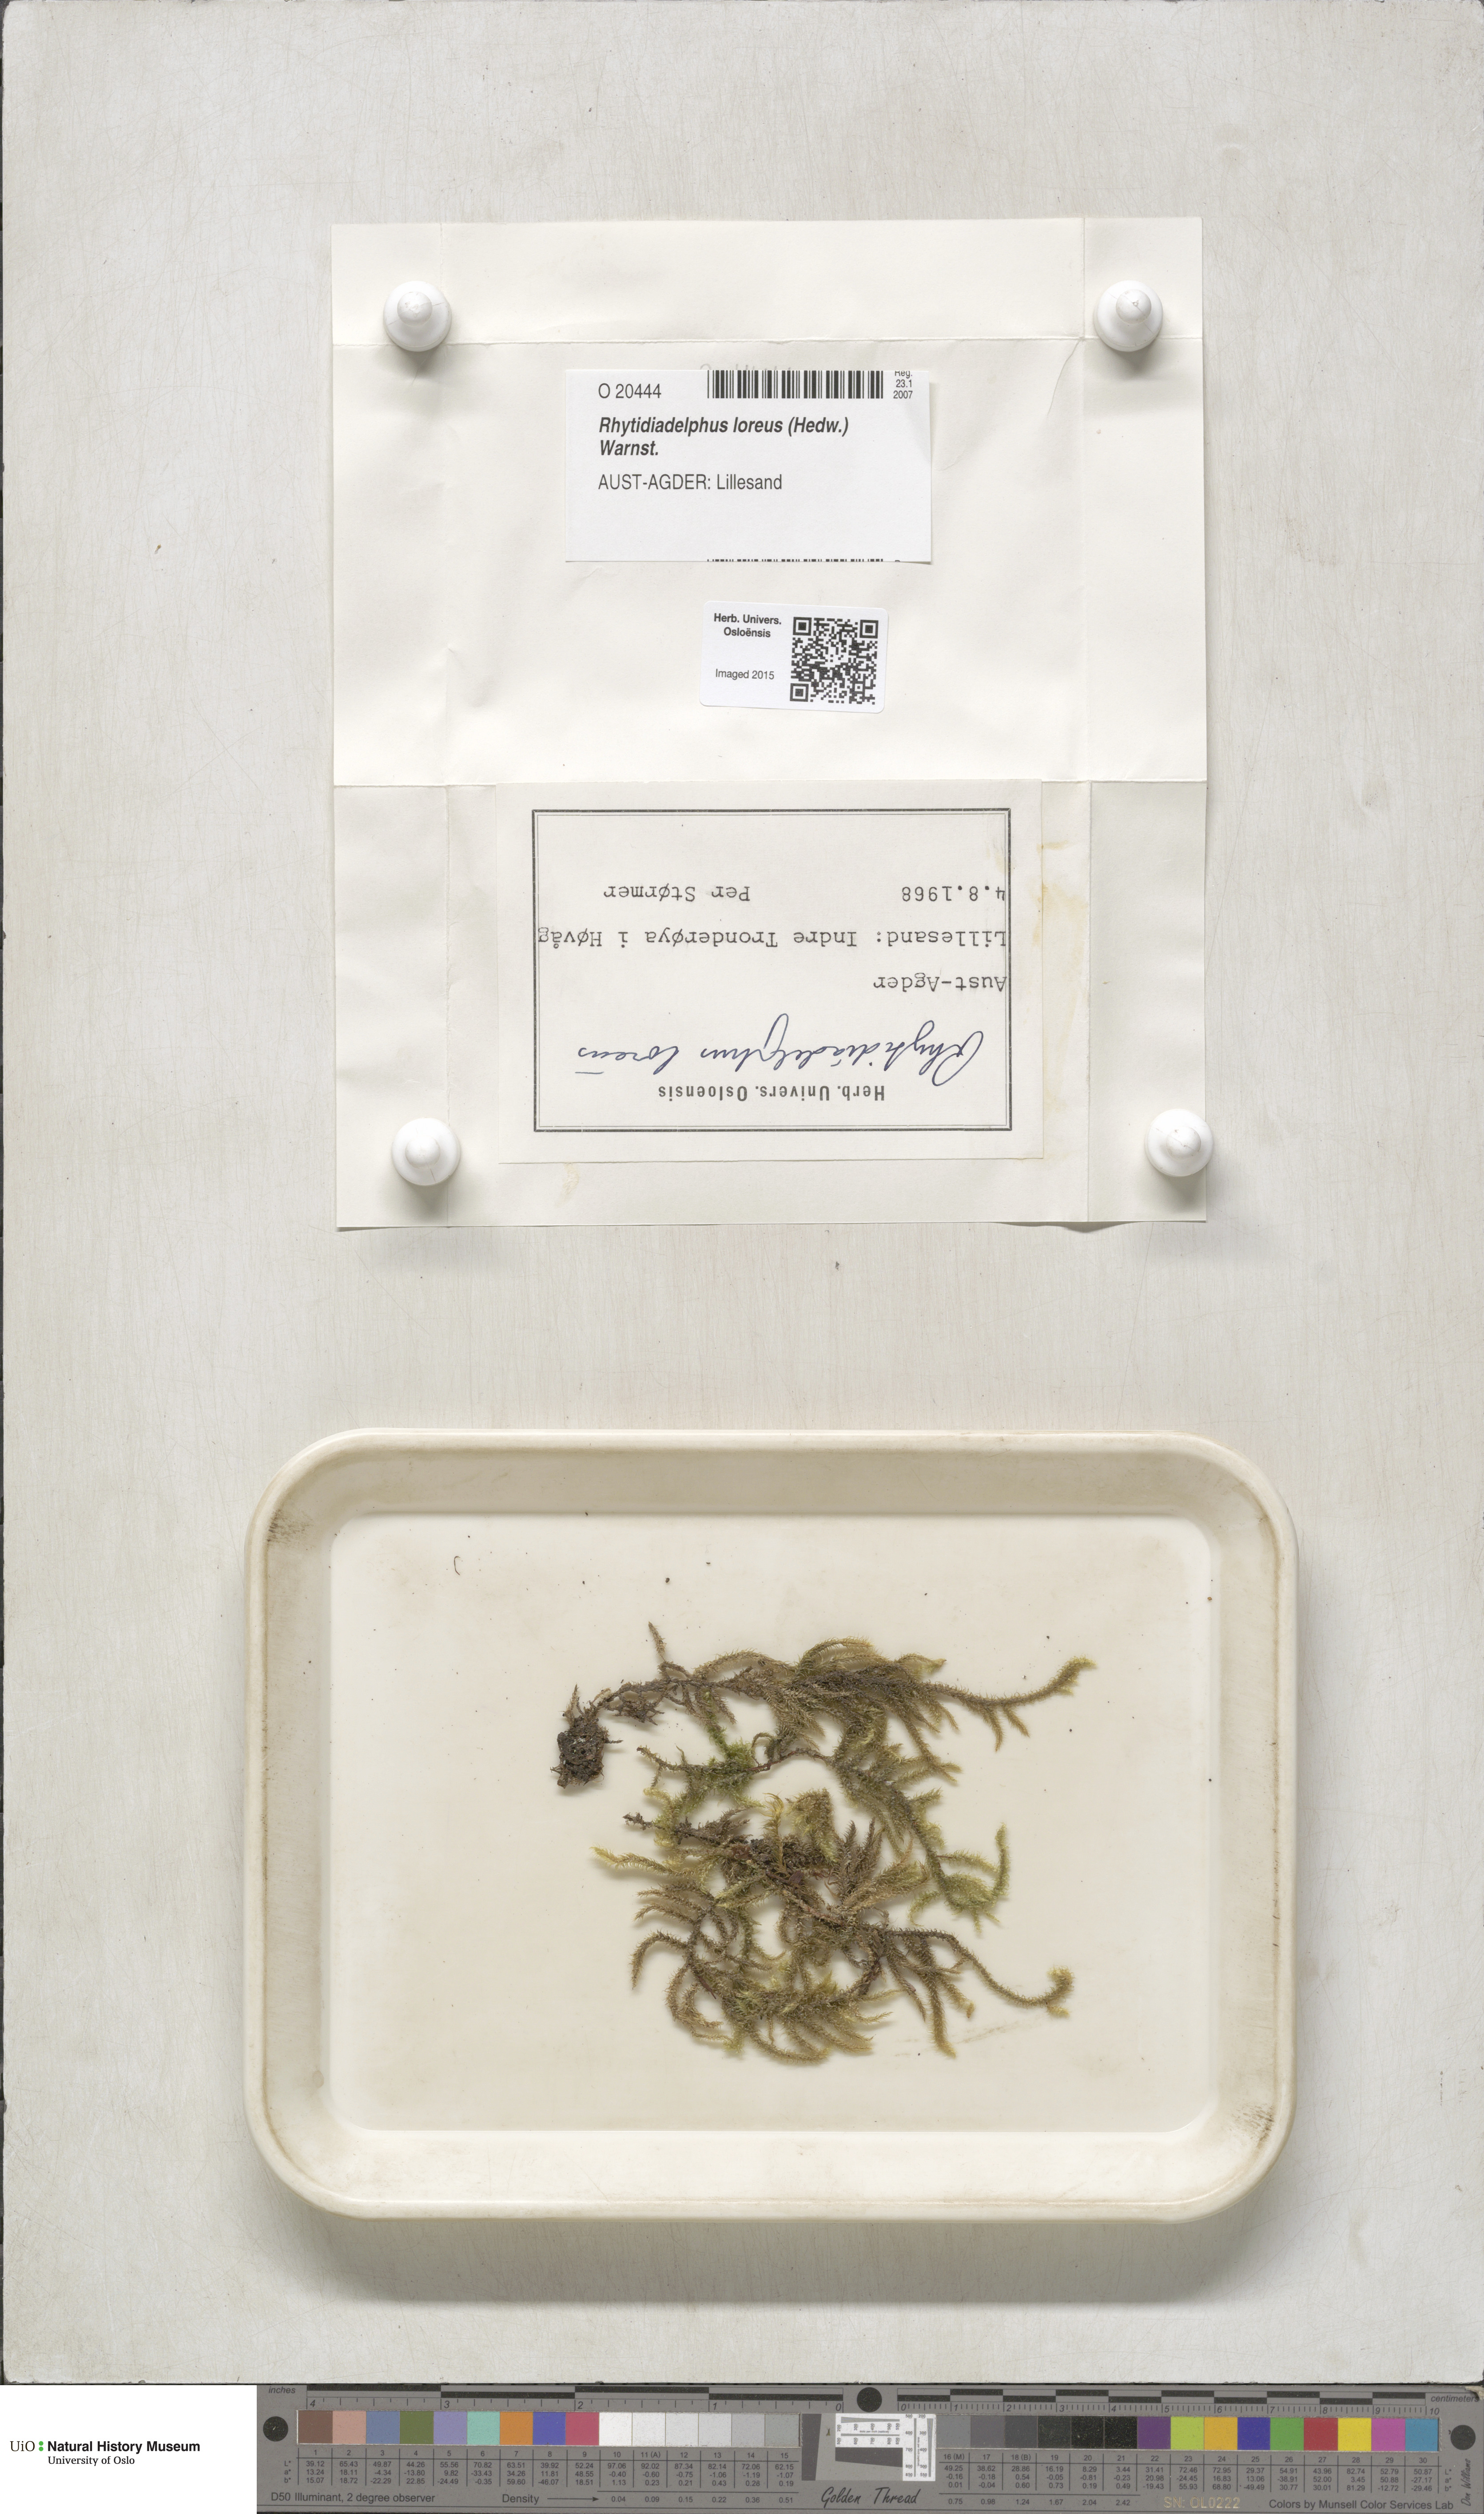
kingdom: Plantae
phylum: Bryophyta
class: Bryopsida
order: Hypnales
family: Hylocomiaceae
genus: Rhytidiadelphus
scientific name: Rhytidiadelphus loreus
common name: Lanky moss
